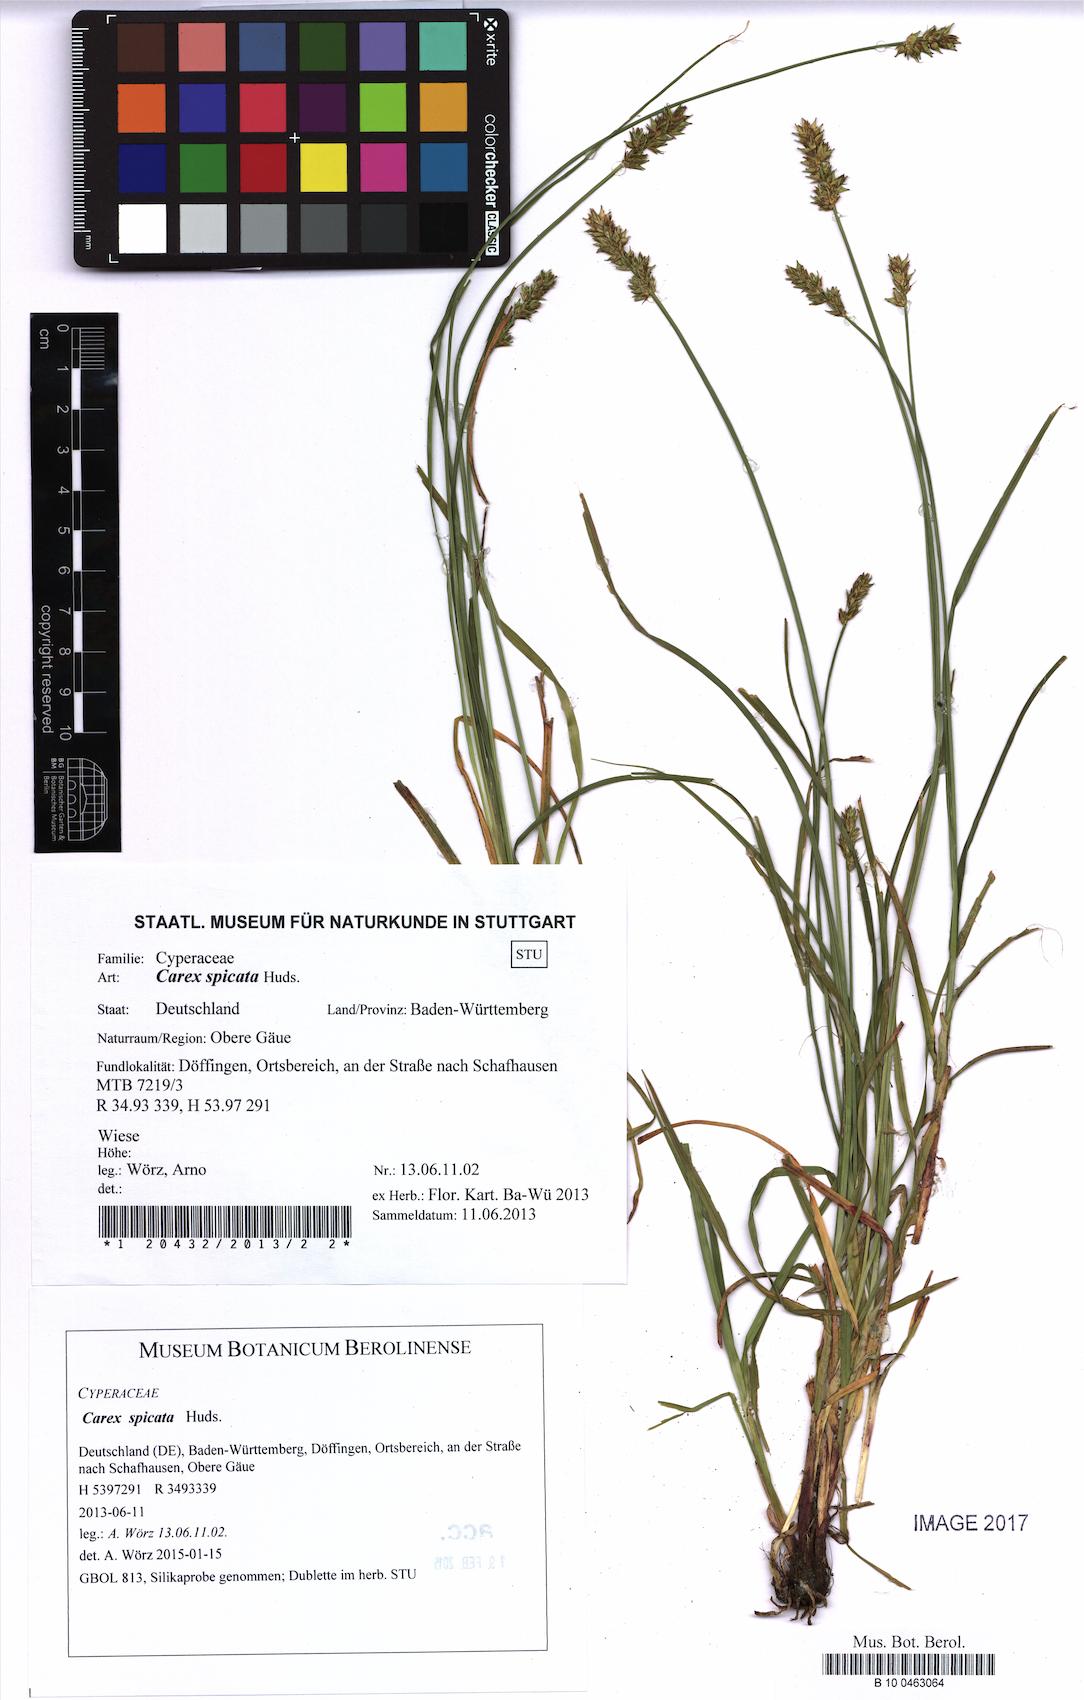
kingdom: Plantae
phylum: Tracheophyta
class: Liliopsida
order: Poales
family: Cyperaceae
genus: Carex
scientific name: Carex spicata
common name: Spiked sedge
